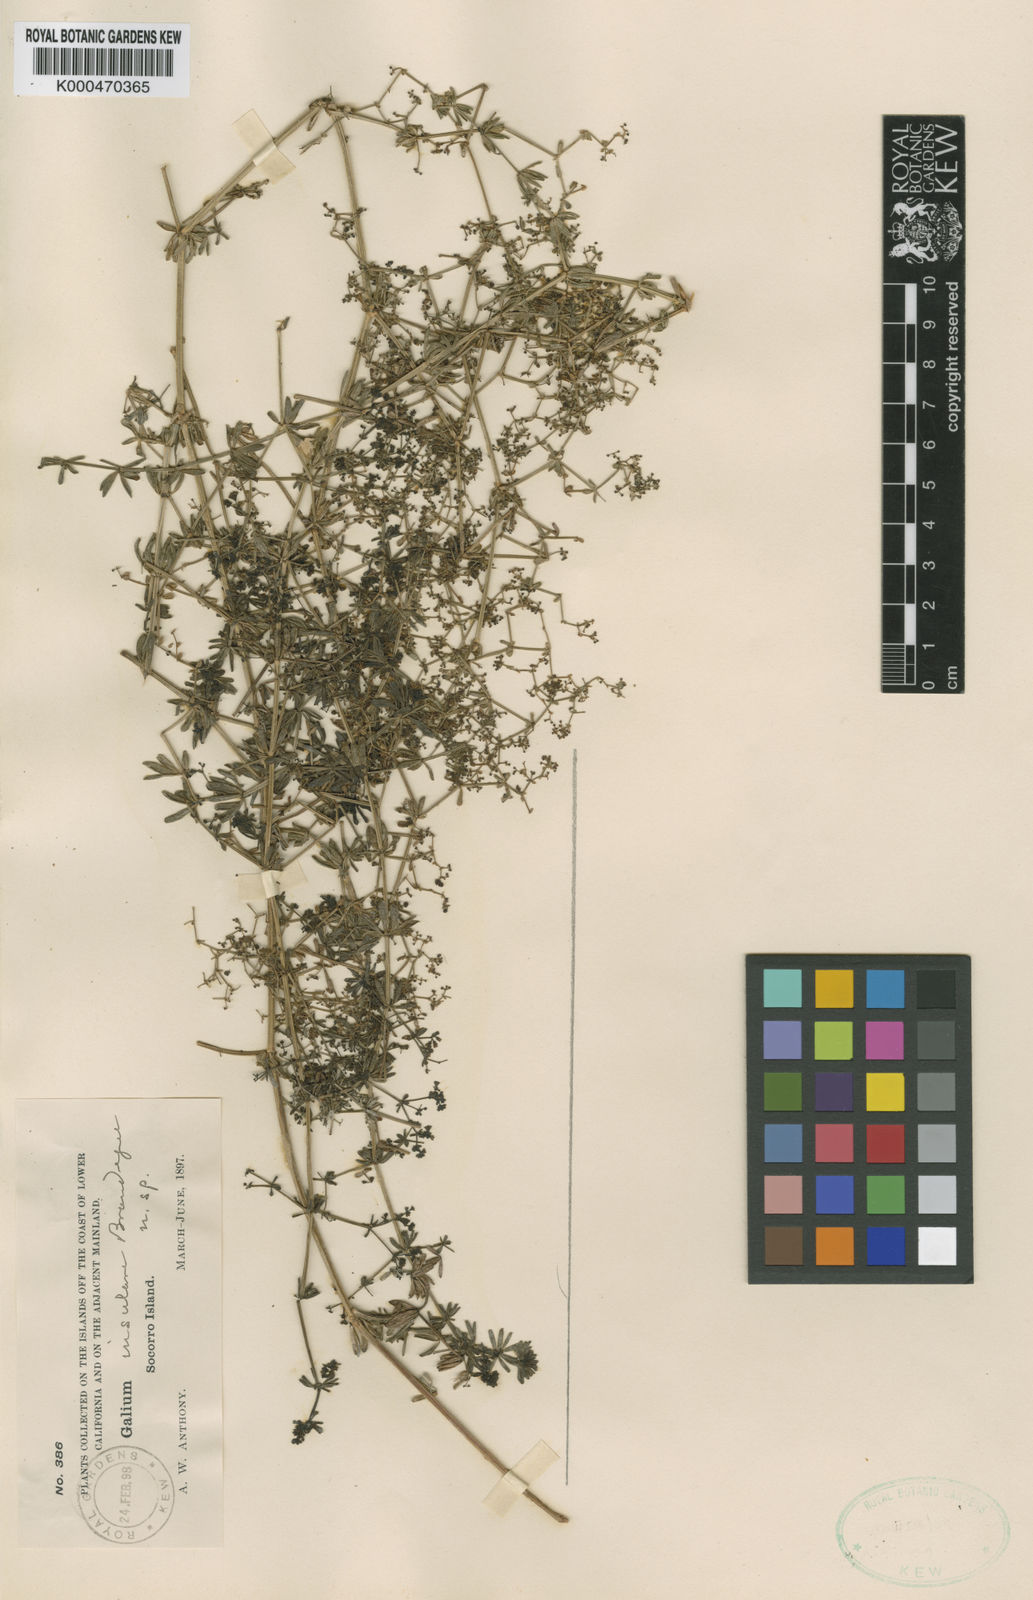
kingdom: Plantae
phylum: Tracheophyta
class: Magnoliopsida
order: Gentianales
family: Rubiaceae
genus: Galium
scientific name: Galium insulare
